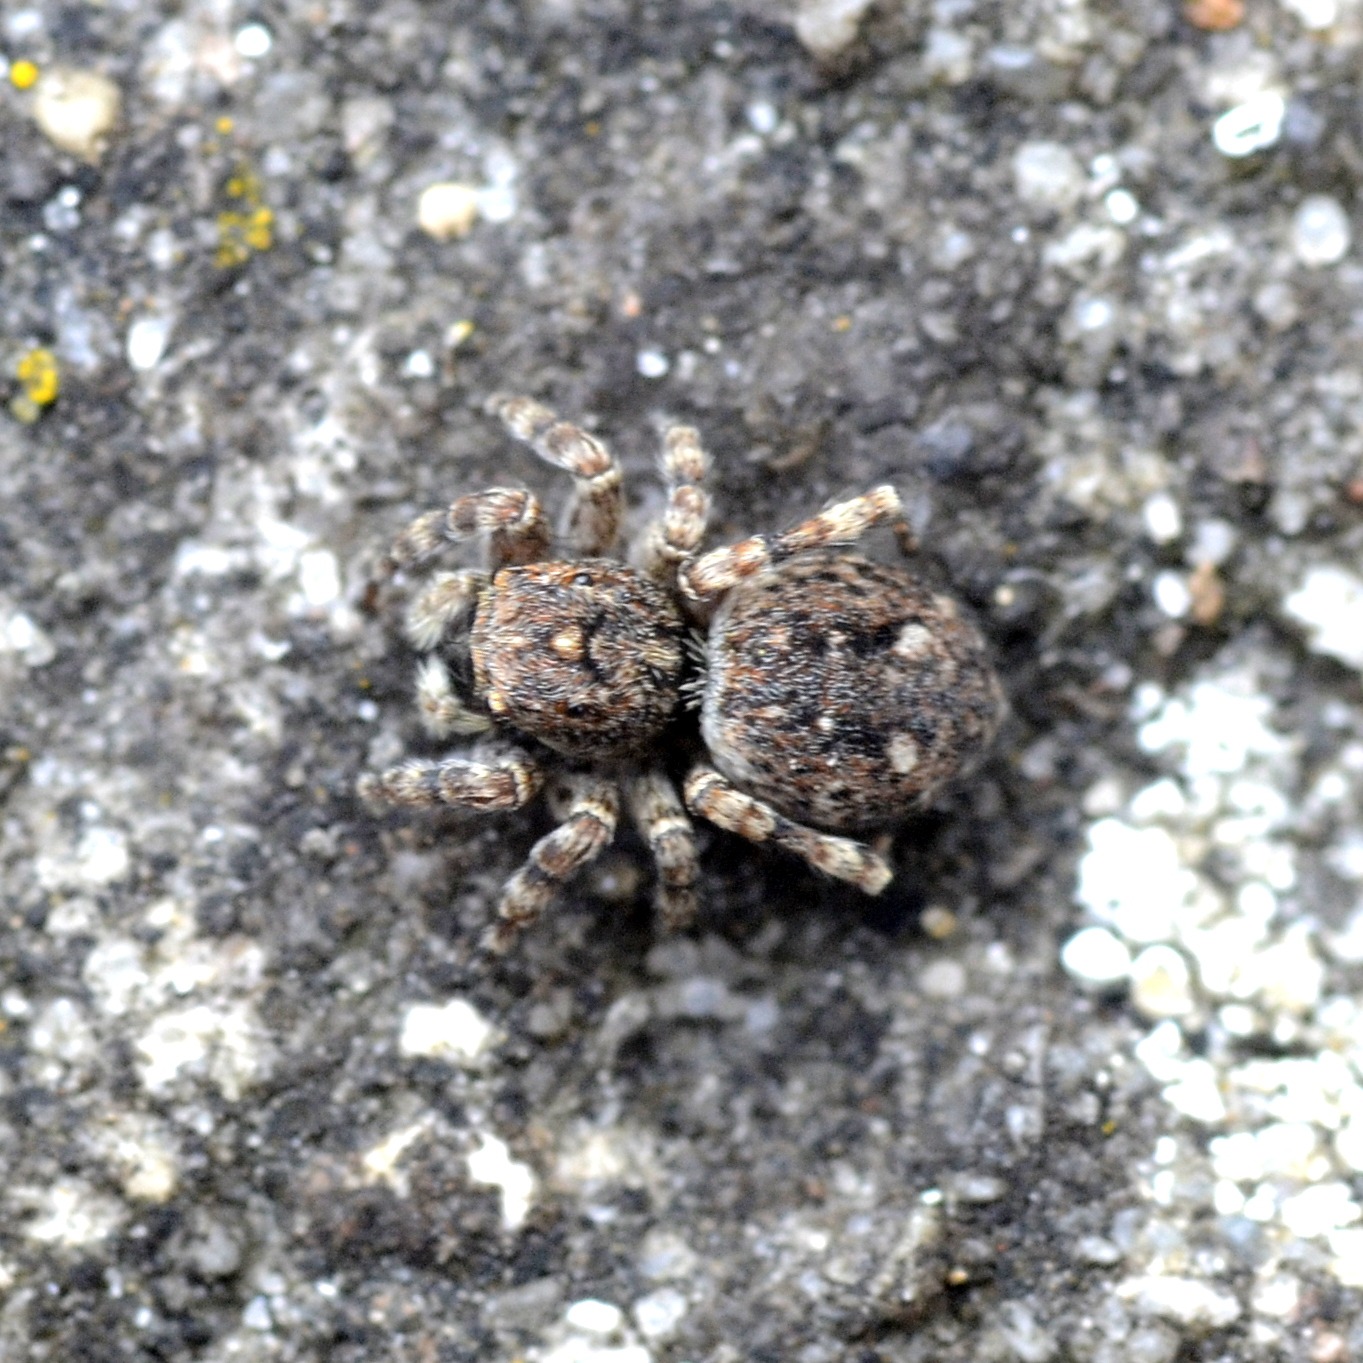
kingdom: Animalia
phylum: Arthropoda
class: Arachnida
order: Araneae
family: Salticidae
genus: Attulus
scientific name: Attulus pubescens
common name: Murspringer
